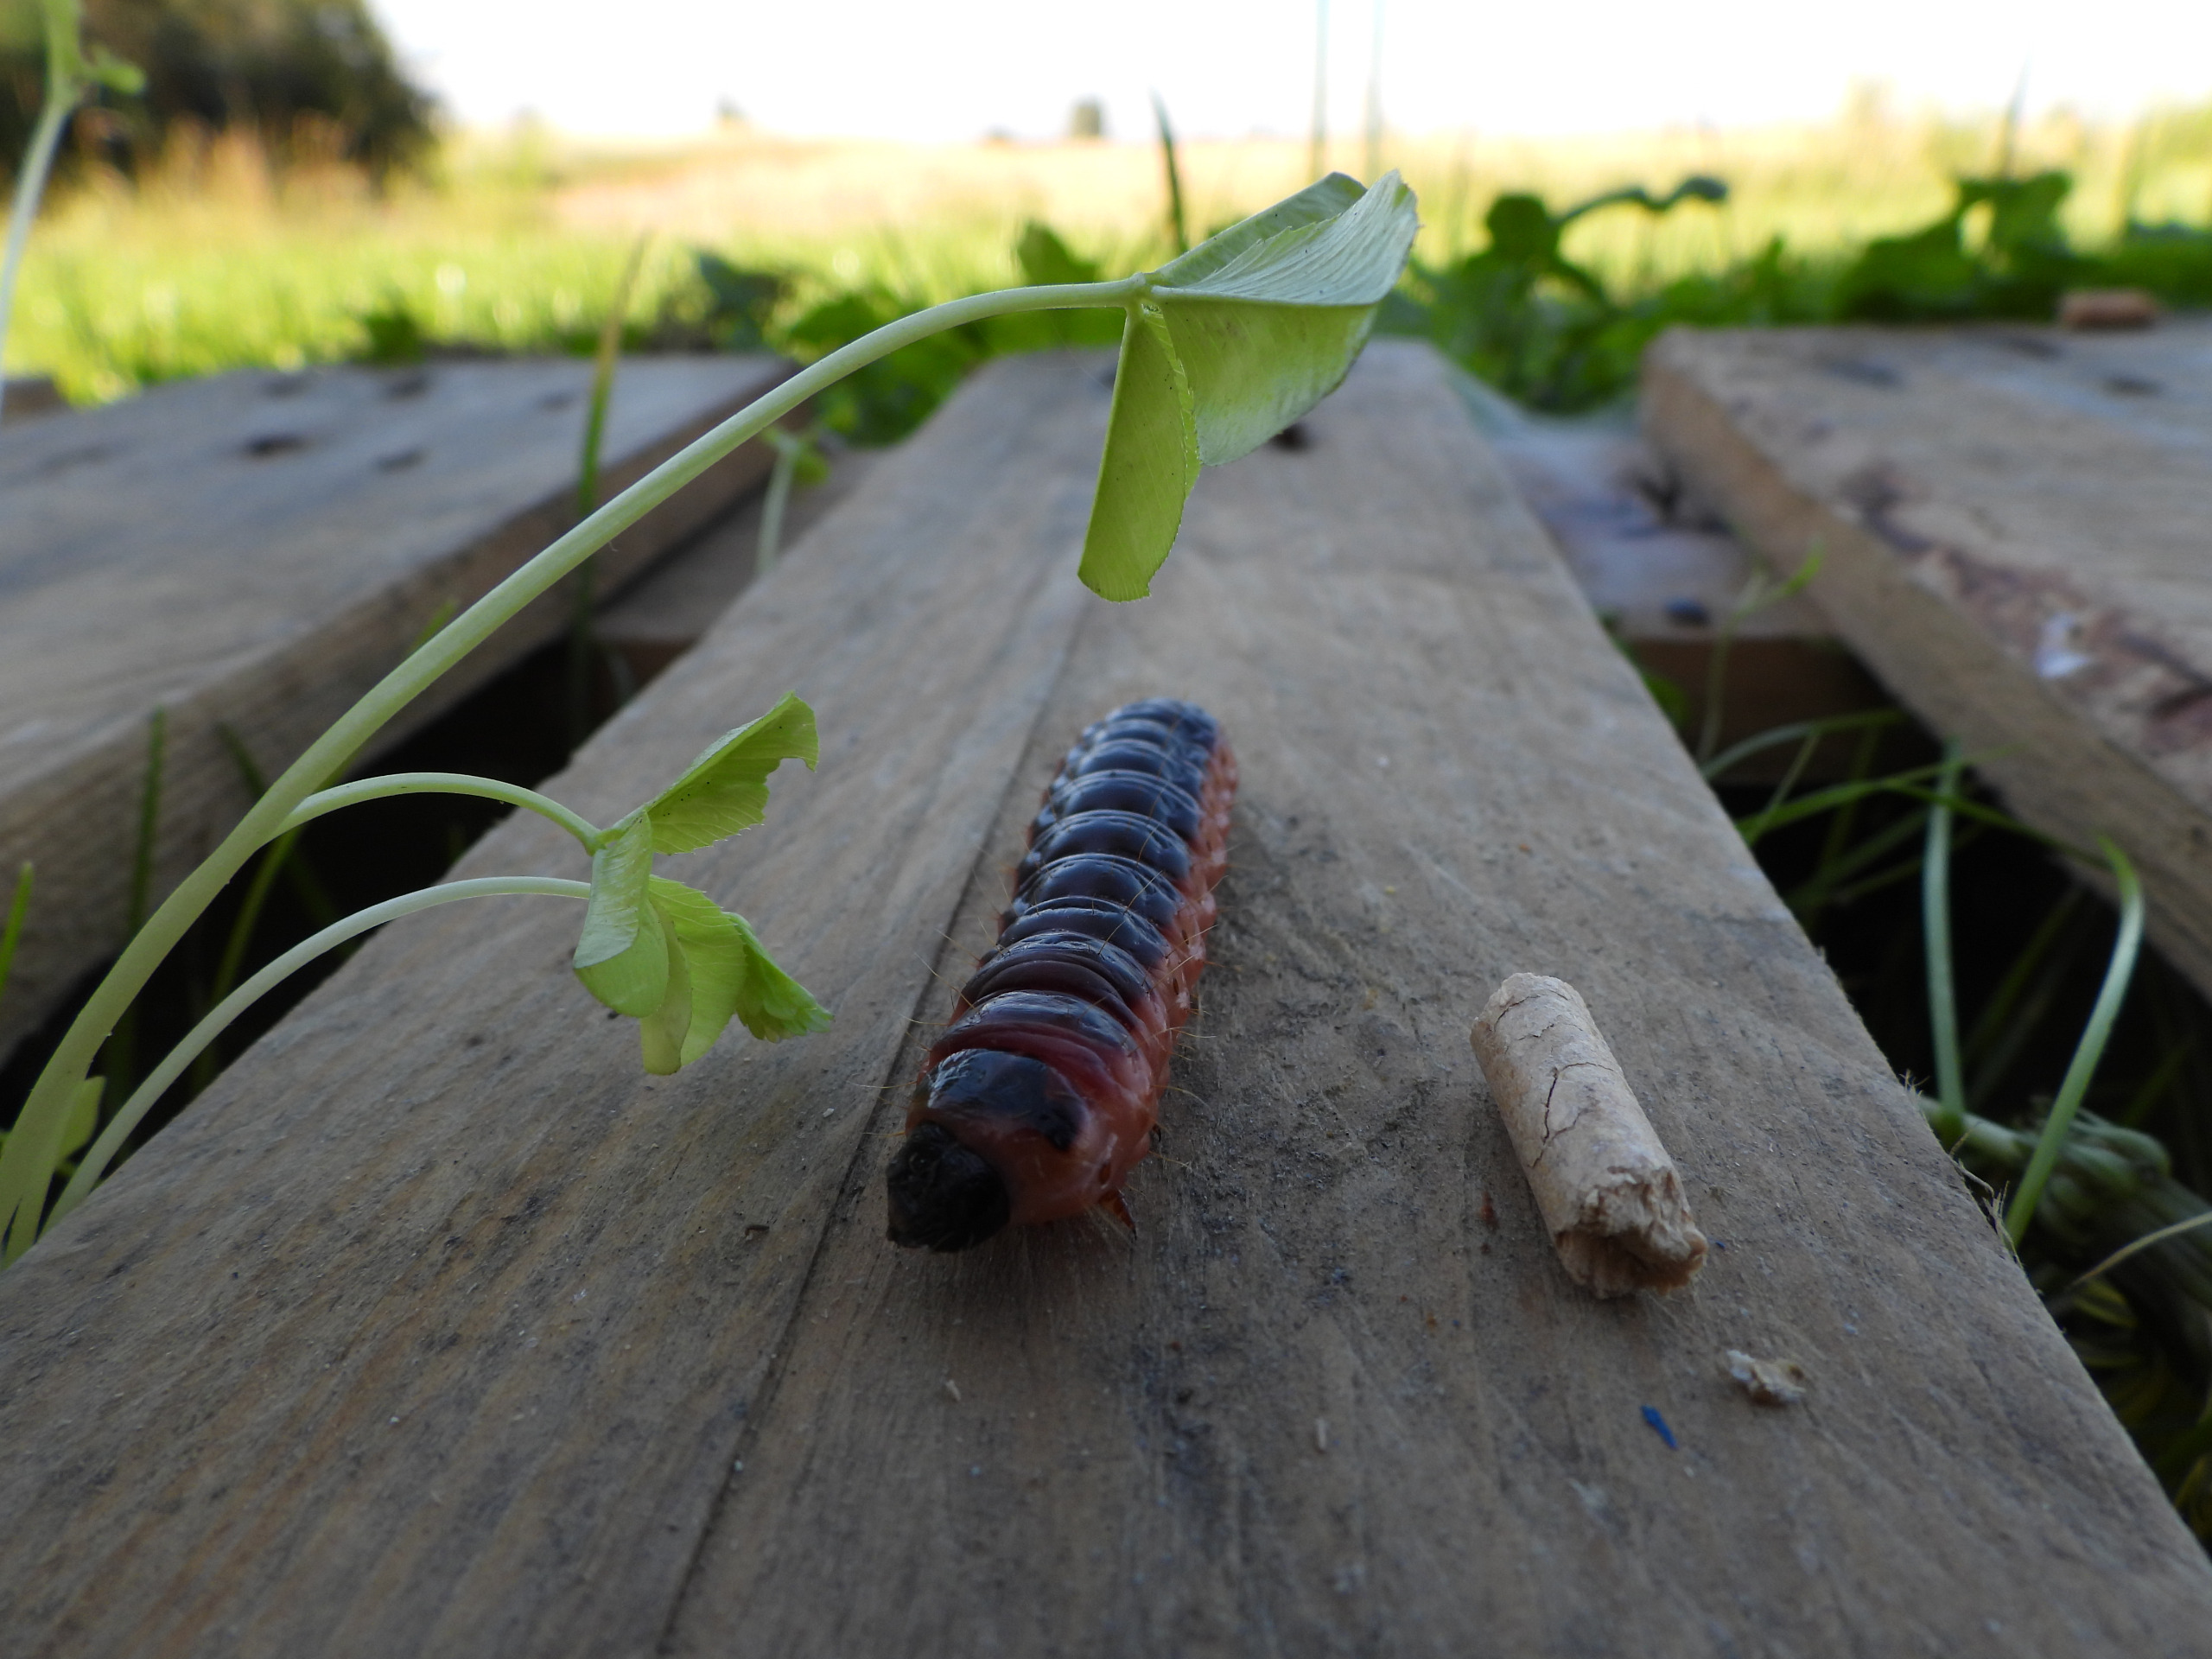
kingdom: Animalia
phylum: Arthropoda
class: Insecta
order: Lepidoptera
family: Cossidae
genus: Cossus
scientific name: Cossus cossus
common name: Pileborer
